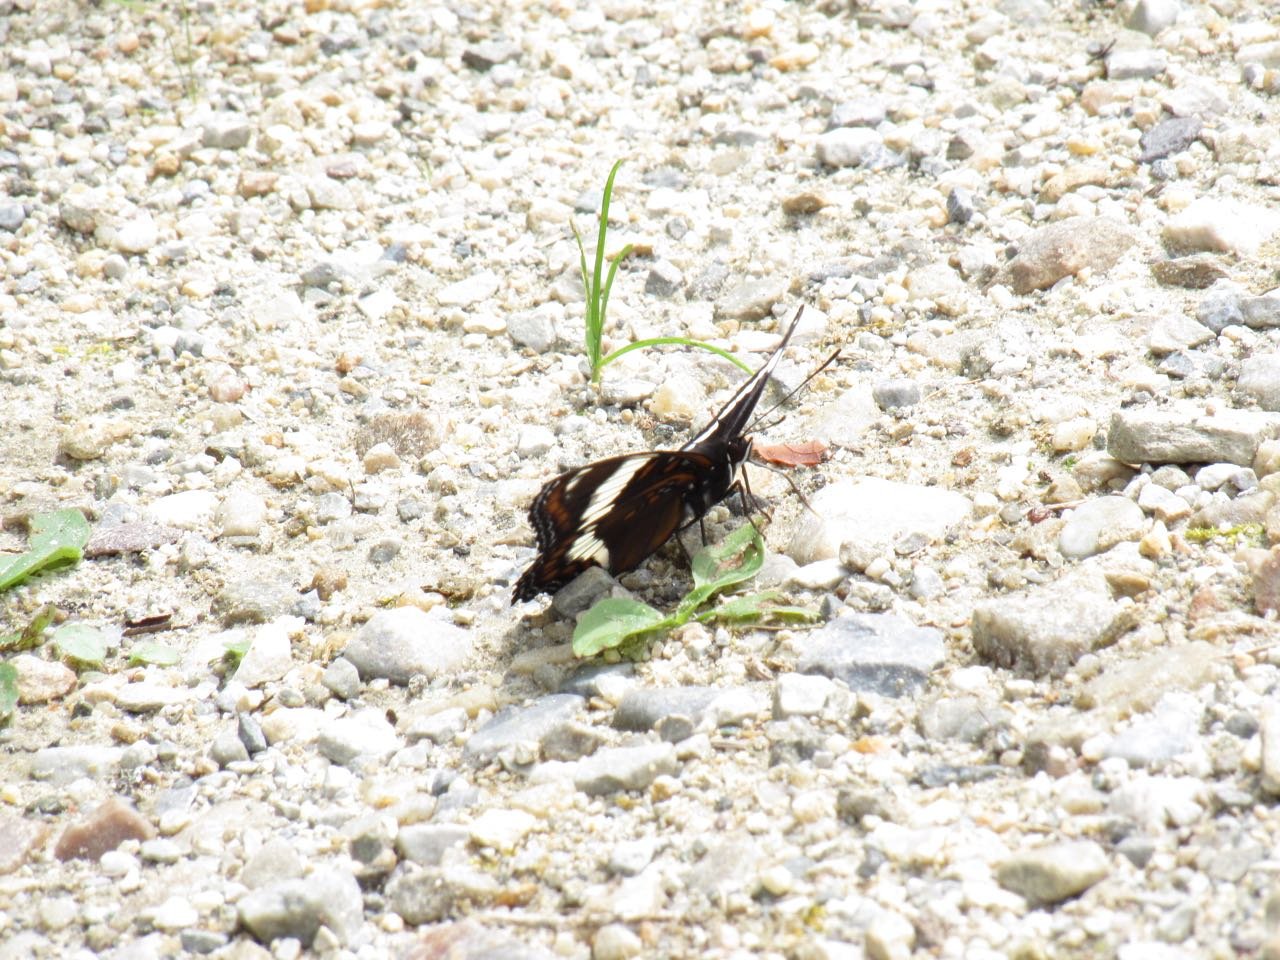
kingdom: Animalia
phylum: Arthropoda
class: Insecta
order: Lepidoptera
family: Nymphalidae
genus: Limenitis
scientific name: Limenitis arthemis
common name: Red-spotted Admiral
